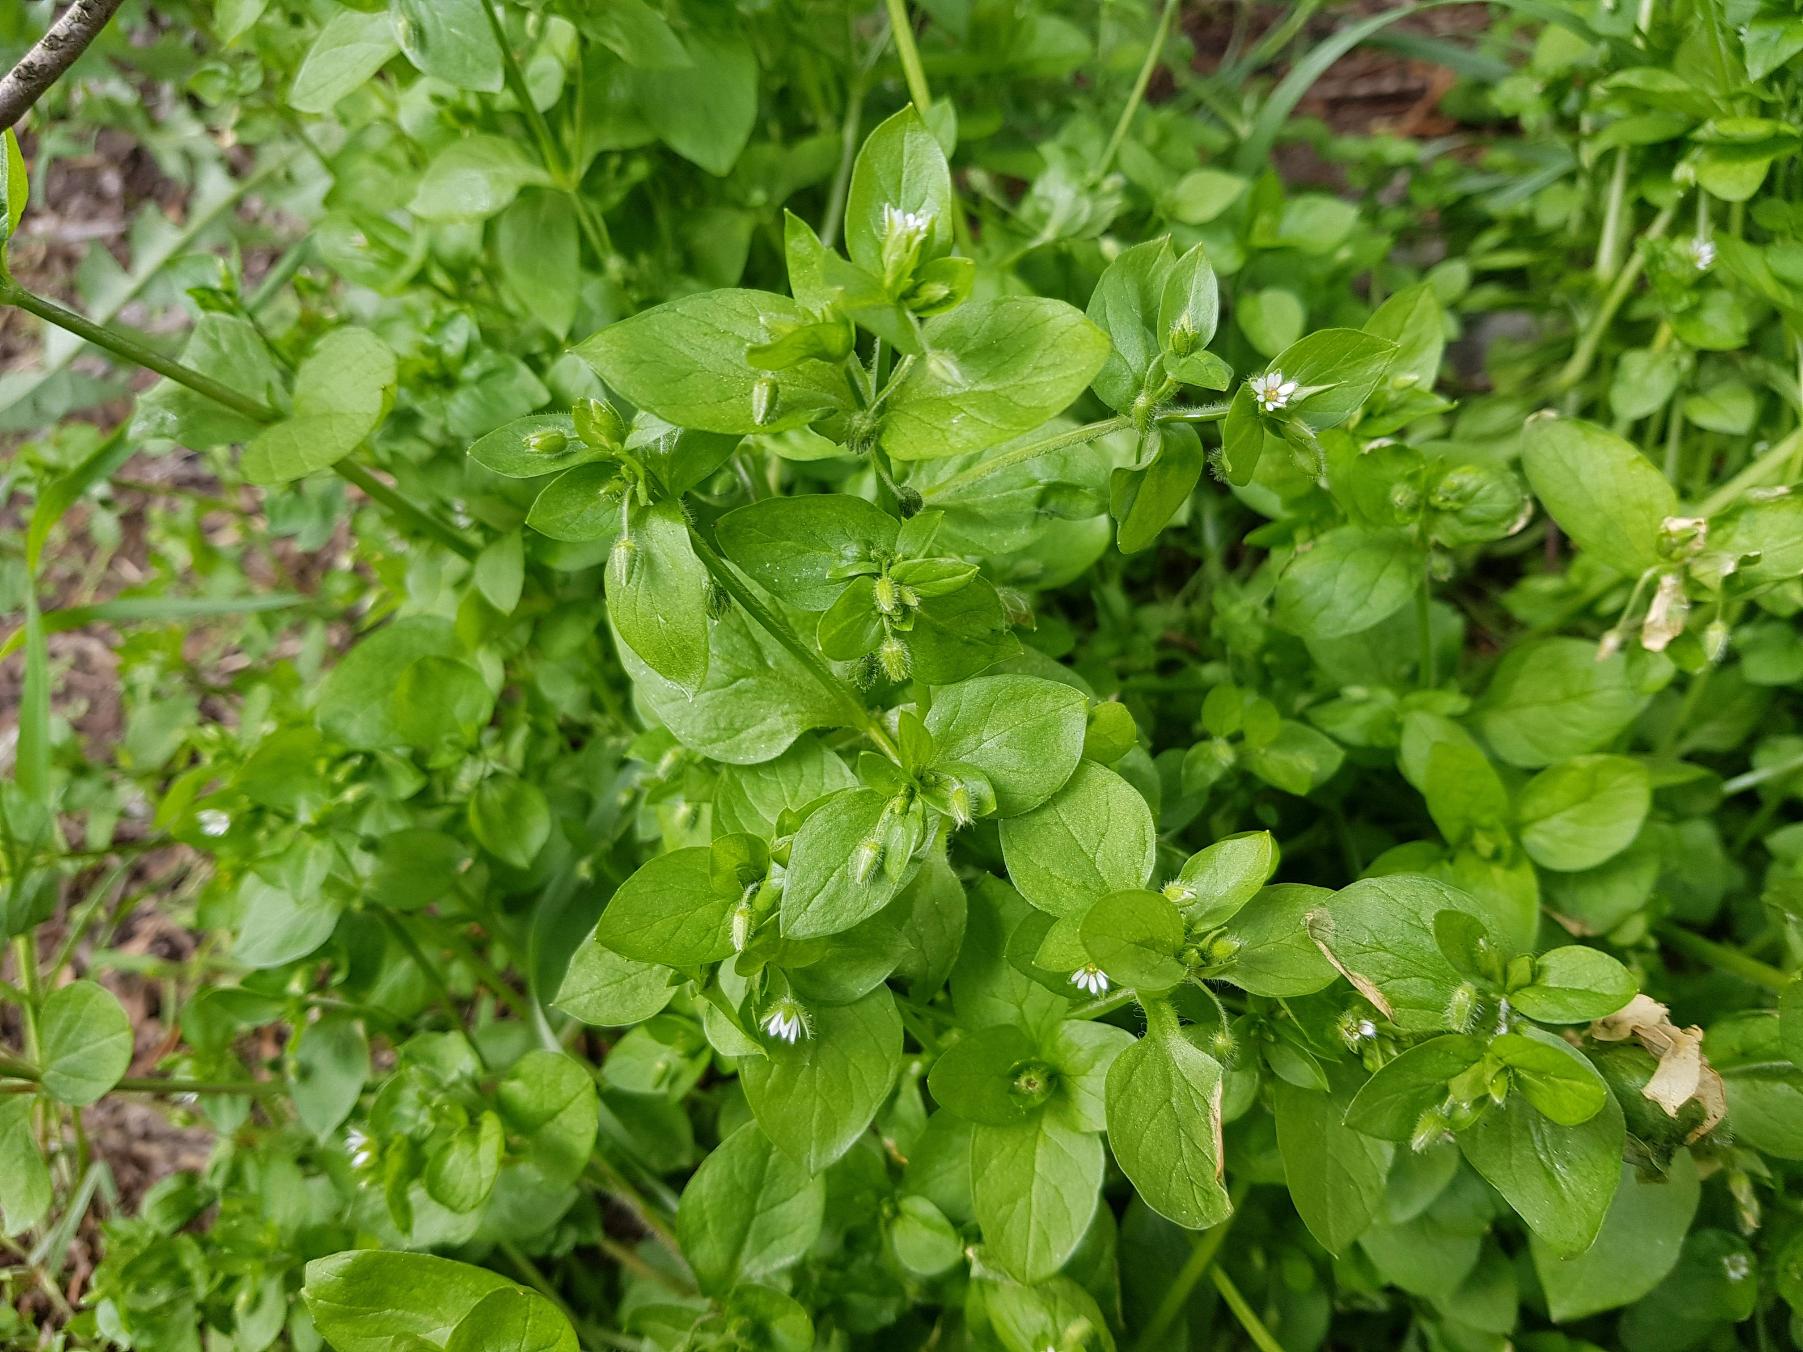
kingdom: Plantae
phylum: Tracheophyta
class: Magnoliopsida
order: Caryophyllales
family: Caryophyllaceae
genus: Stellaria
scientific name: Stellaria media
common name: Almindelig fuglegræs
